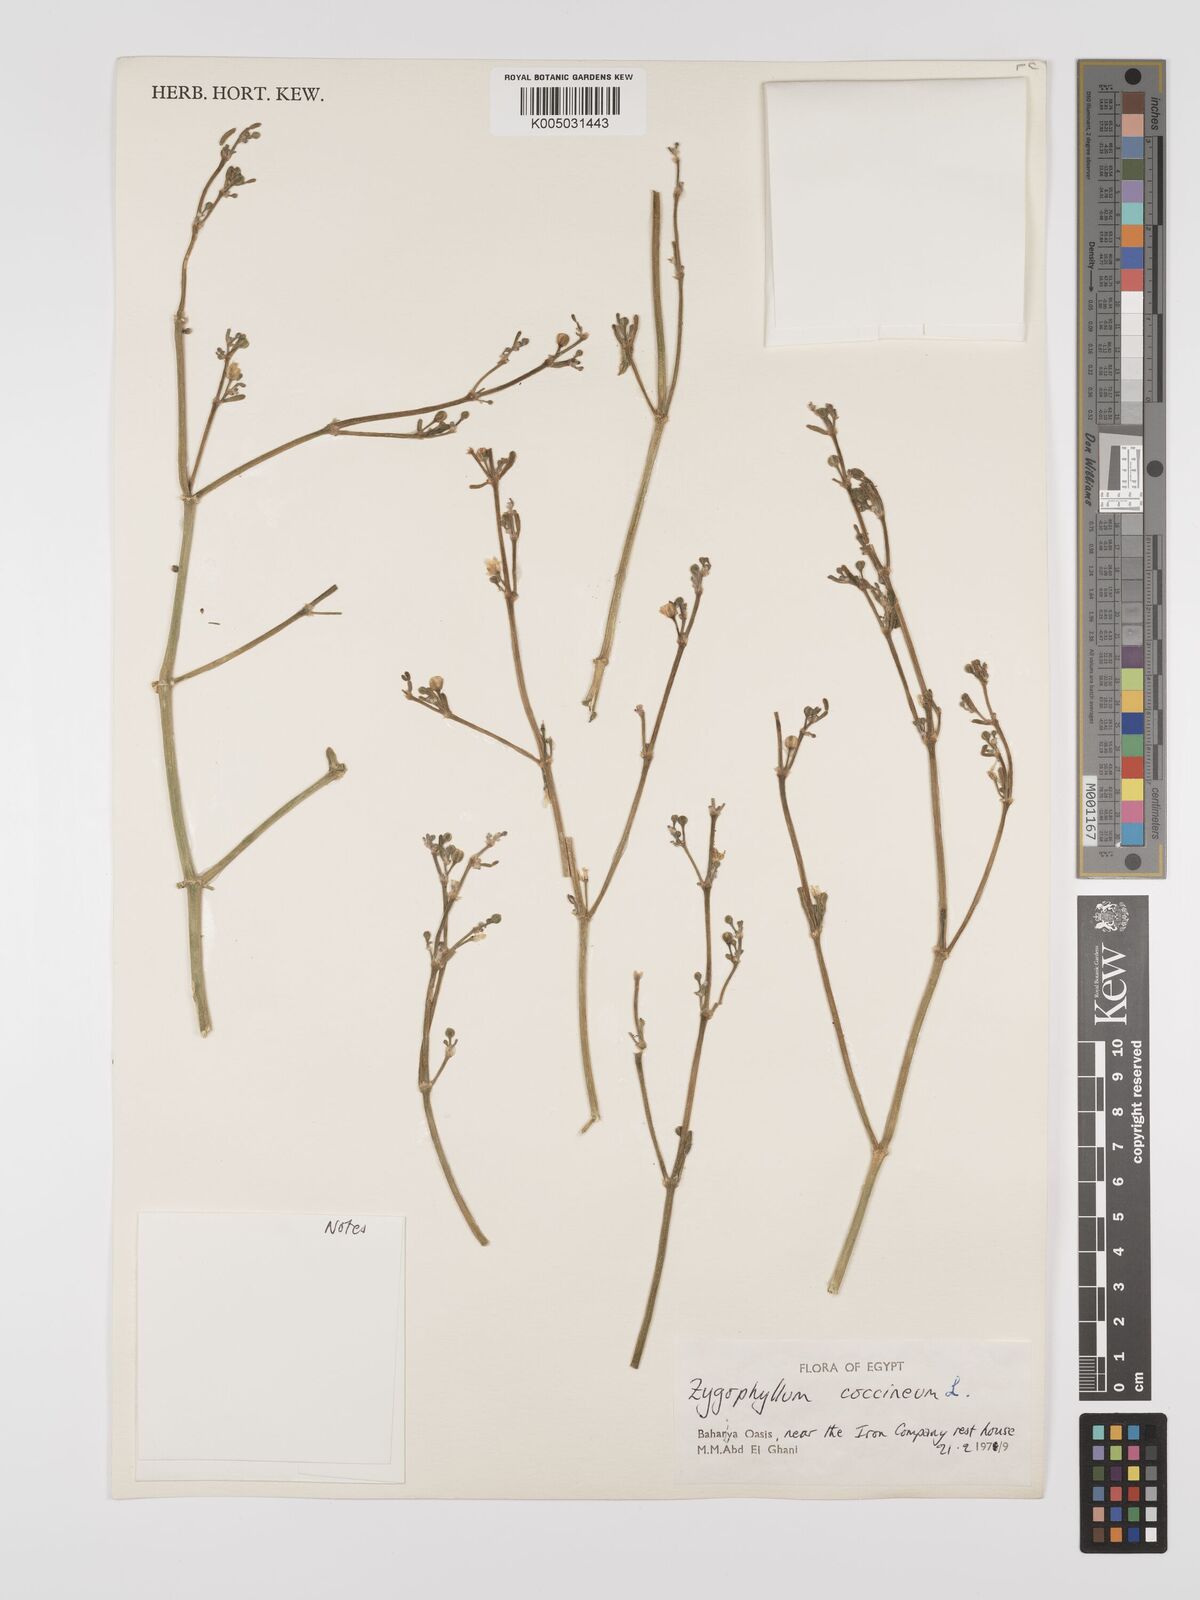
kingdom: Plantae
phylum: Tracheophyta
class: Magnoliopsida
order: Zygophyllales
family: Zygophyllaceae
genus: Zygophyllum
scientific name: Zygophyllum
